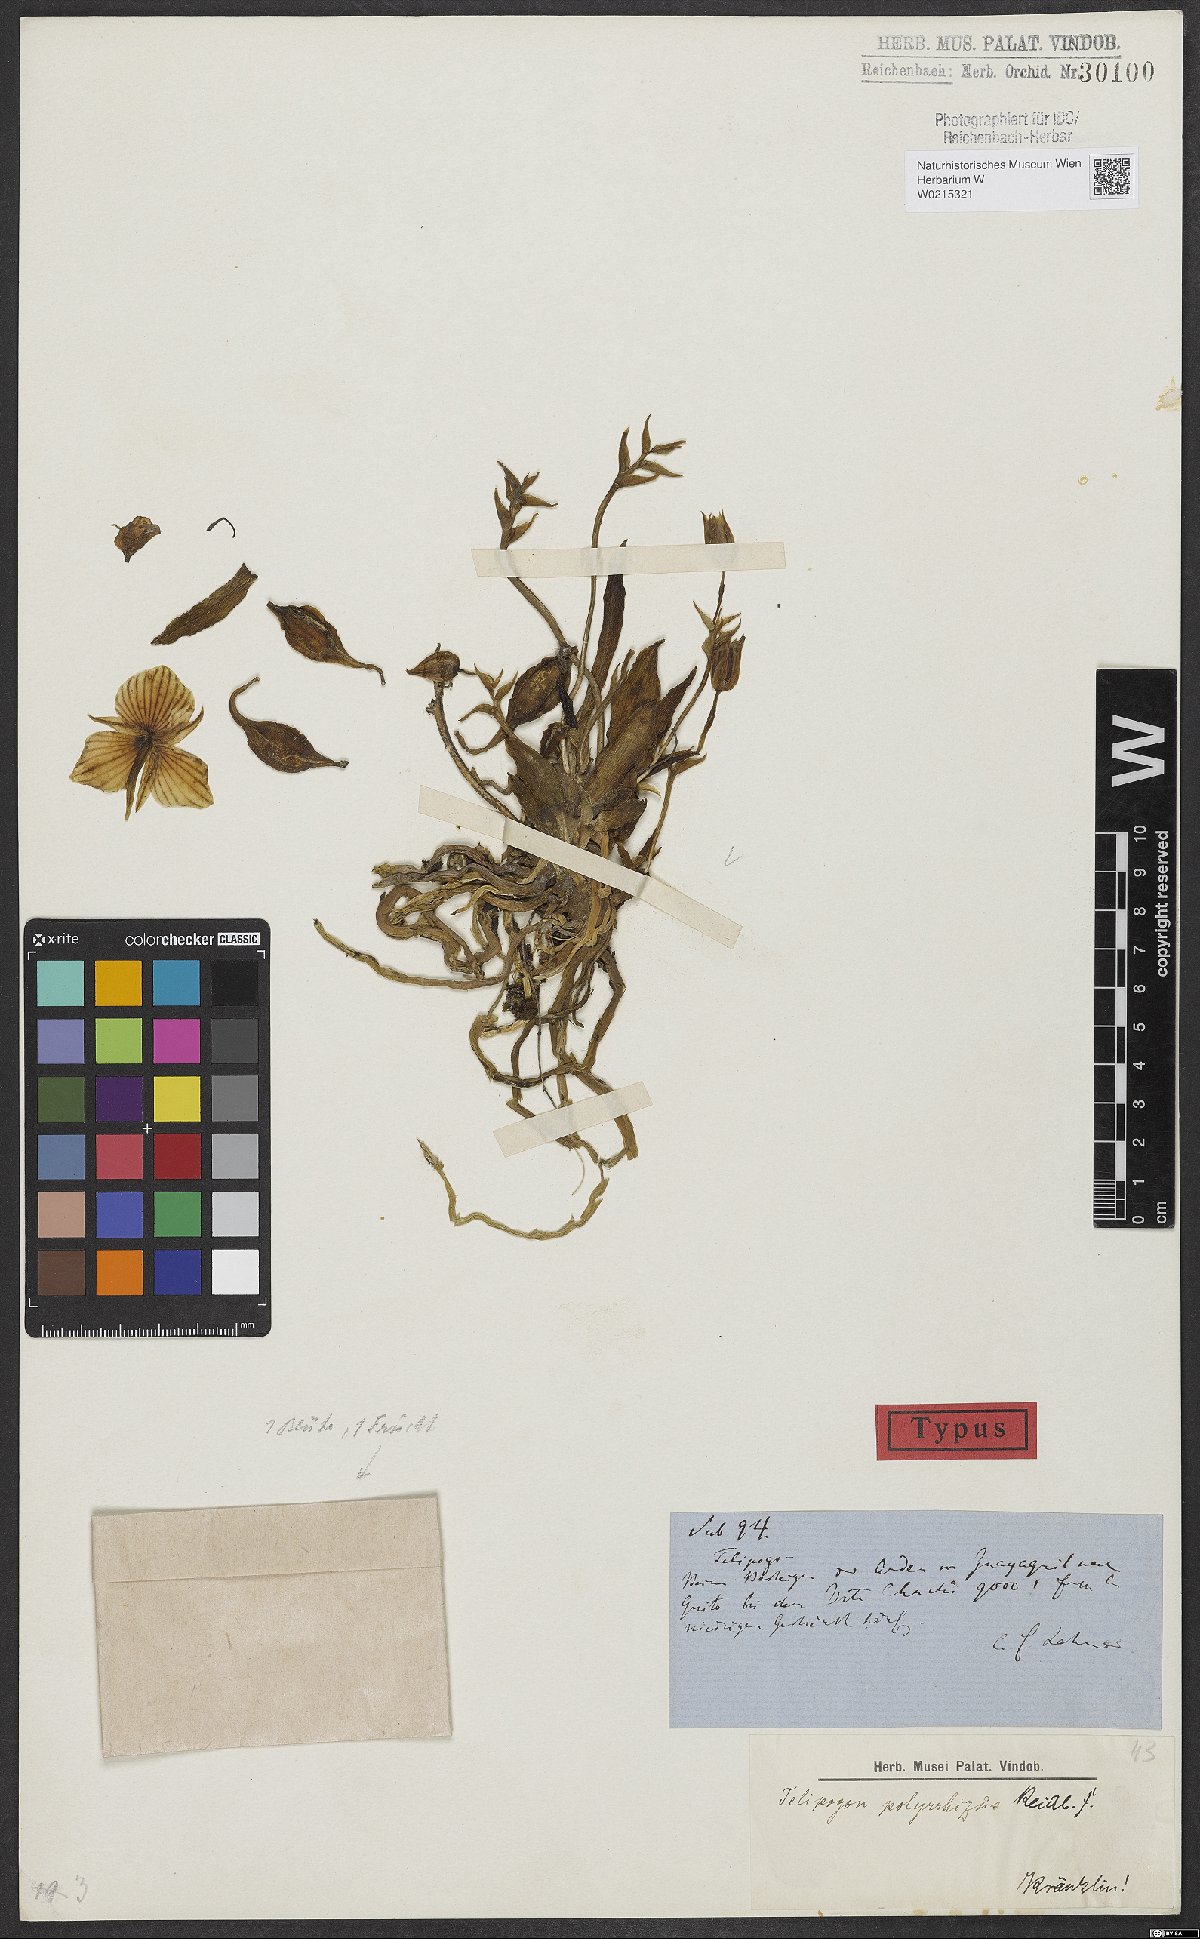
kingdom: Plantae
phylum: Tracheophyta
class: Liliopsida
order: Asparagales
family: Orchidaceae
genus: Telipogon
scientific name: Telipogon polyrrhizus
